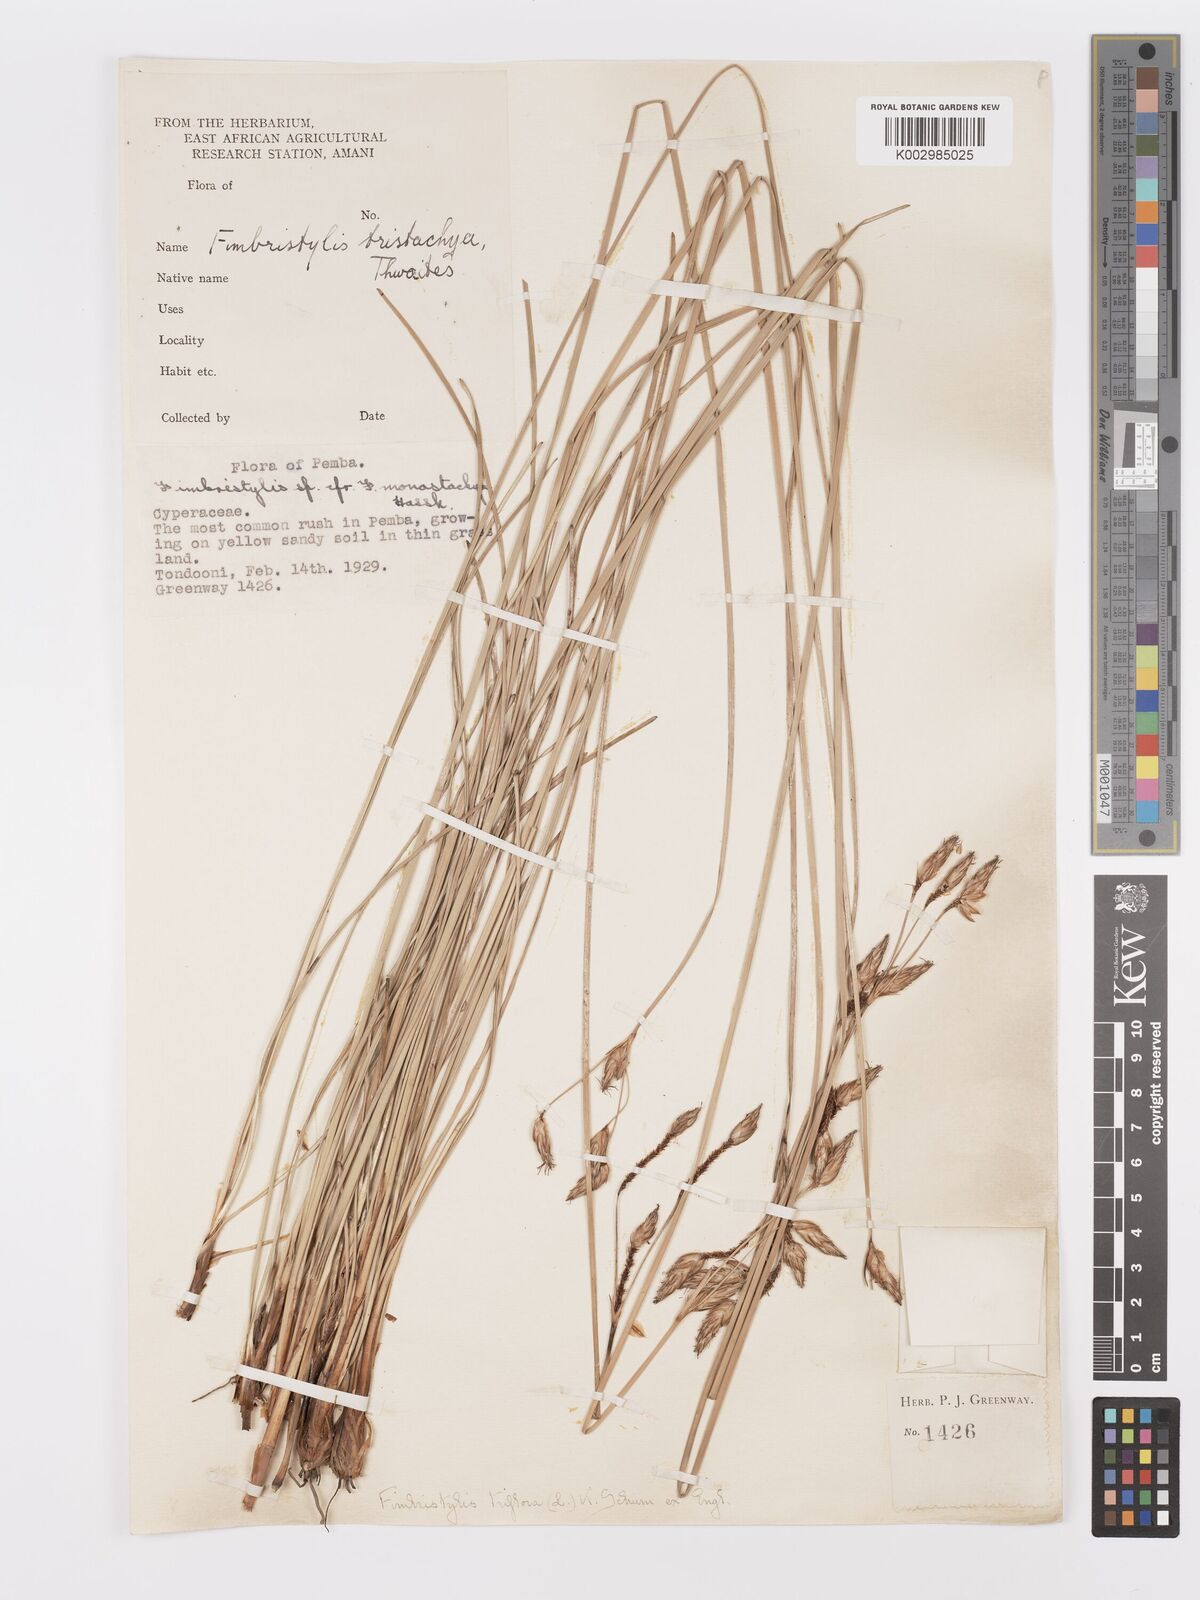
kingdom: Plantae
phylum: Tracheophyta
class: Liliopsida
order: Poales
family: Cyperaceae
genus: Abildgaardia
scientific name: Abildgaardia triflora
